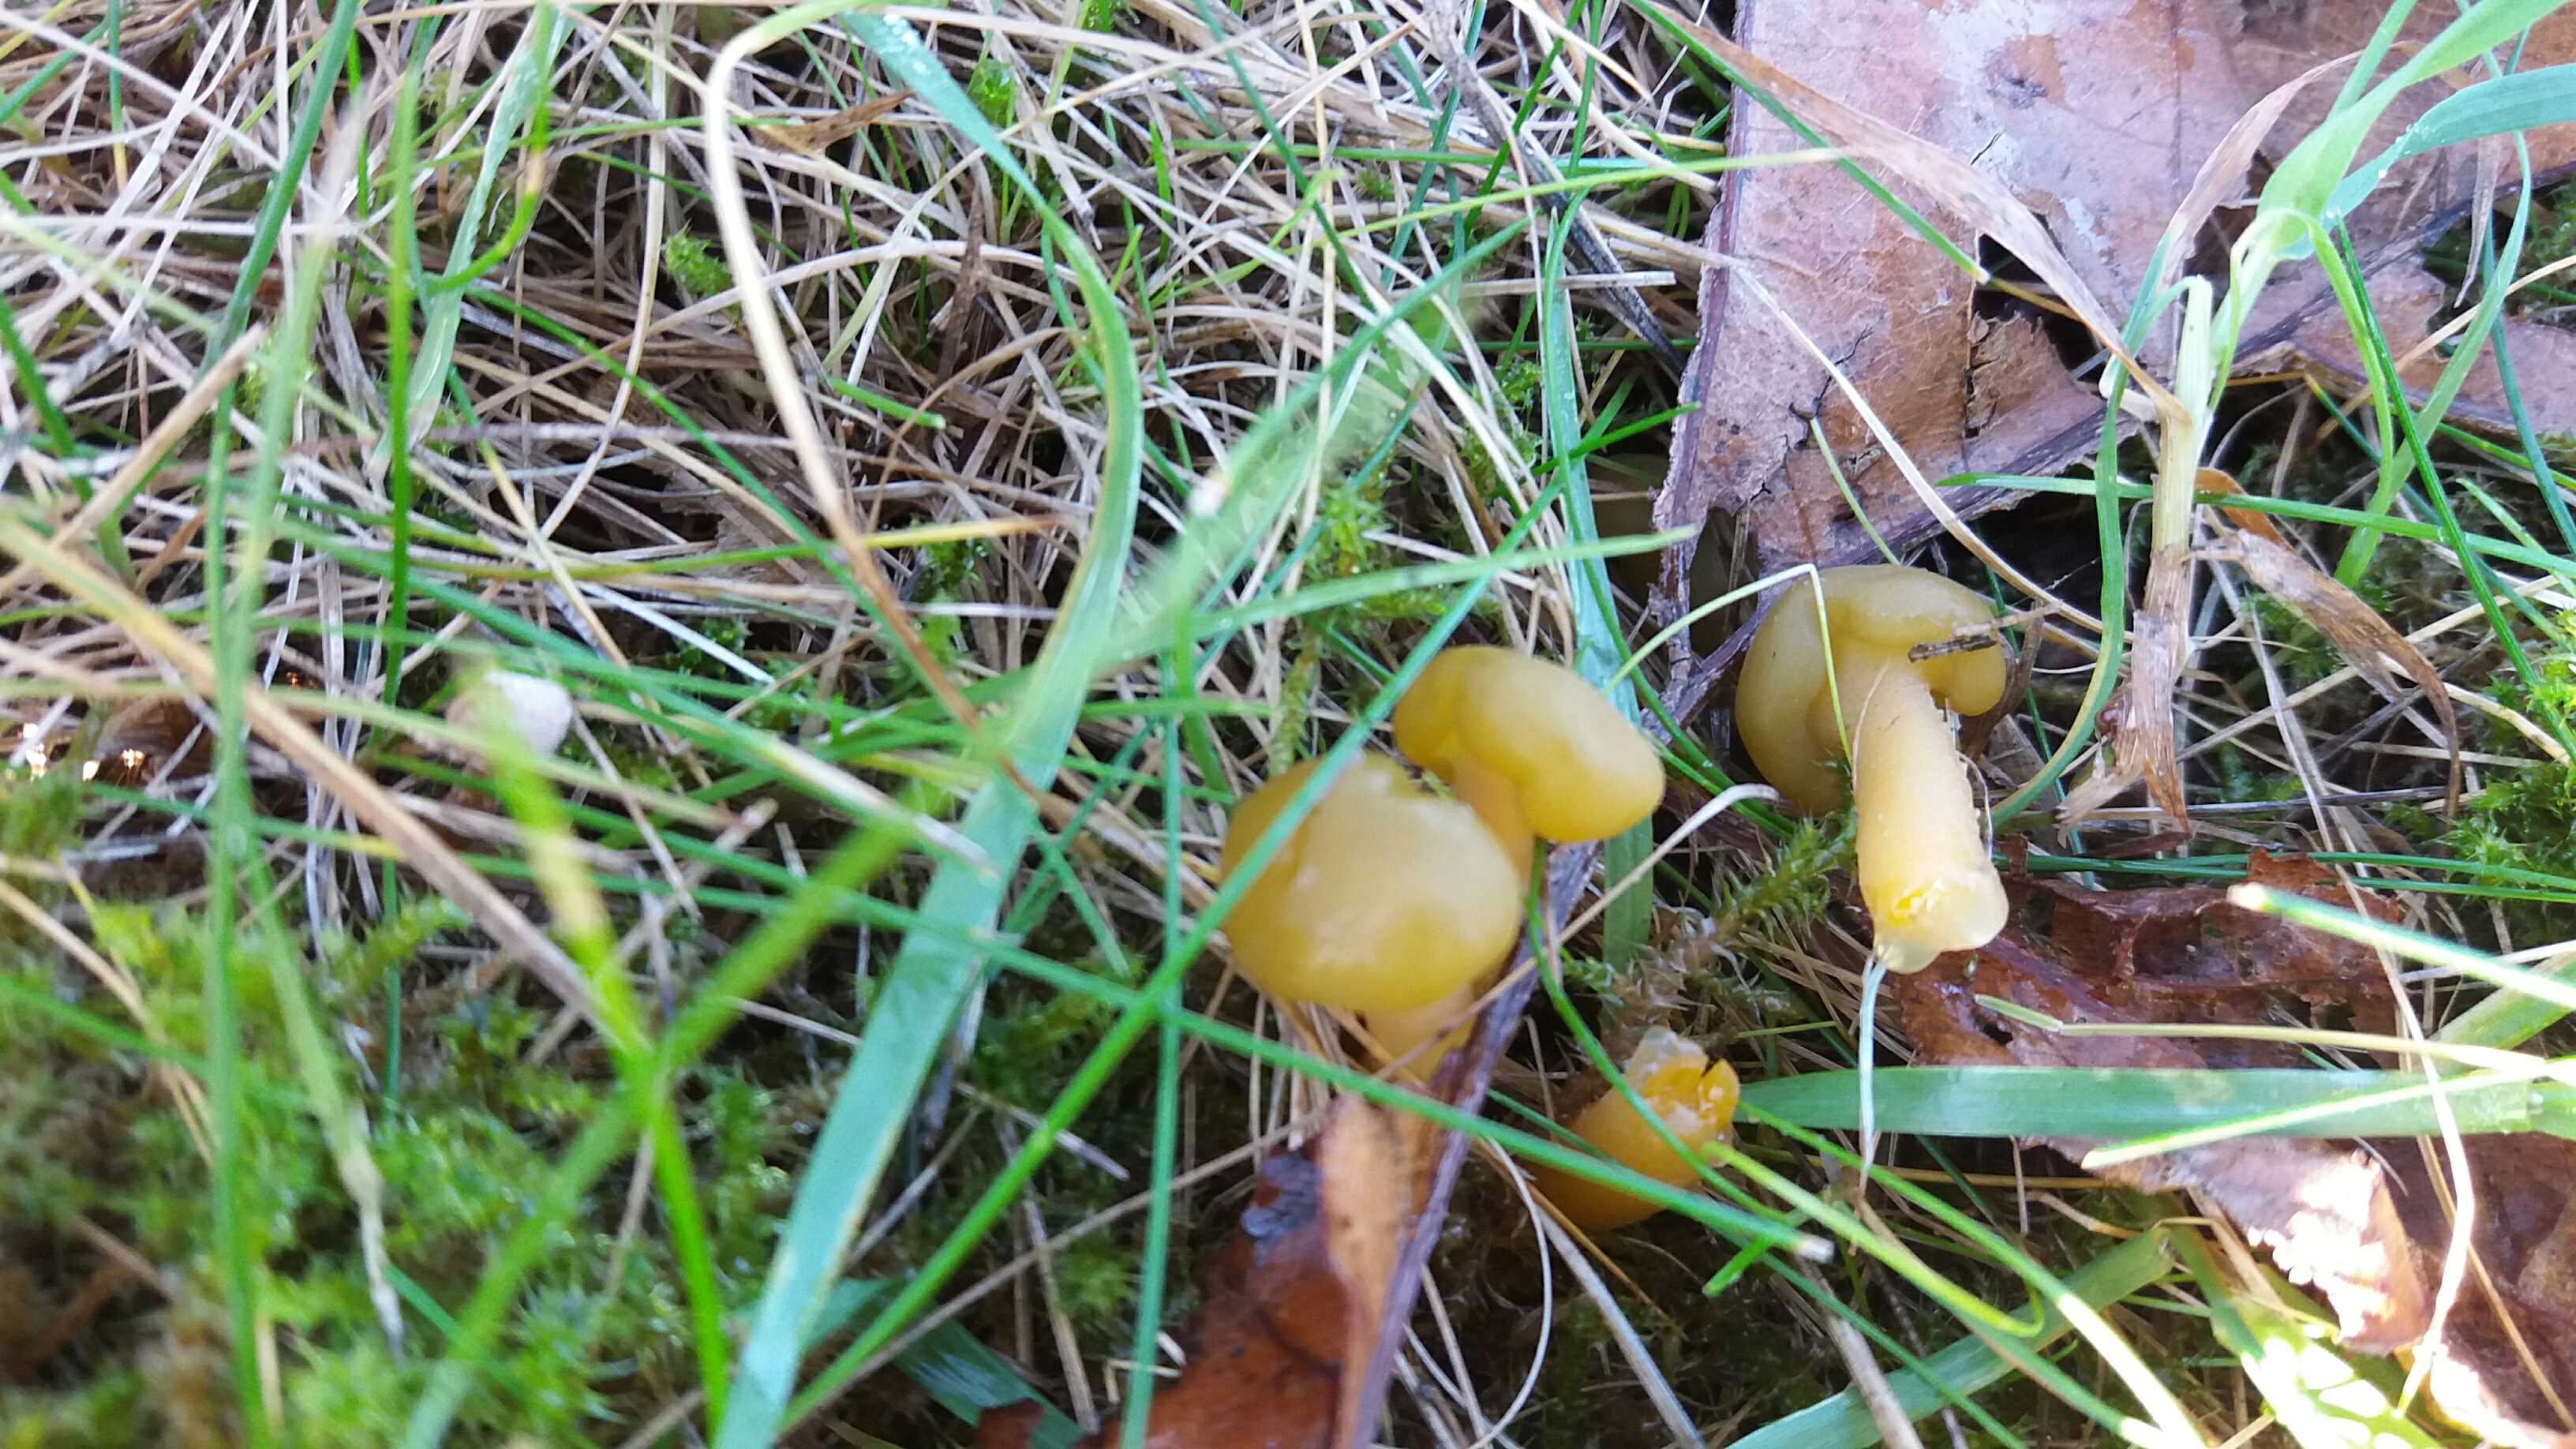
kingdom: Fungi
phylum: Ascomycota
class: Leotiomycetes
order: Leotiales
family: Leotiaceae
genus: Leotia
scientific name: Leotia lubrica
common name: ravsvamp
